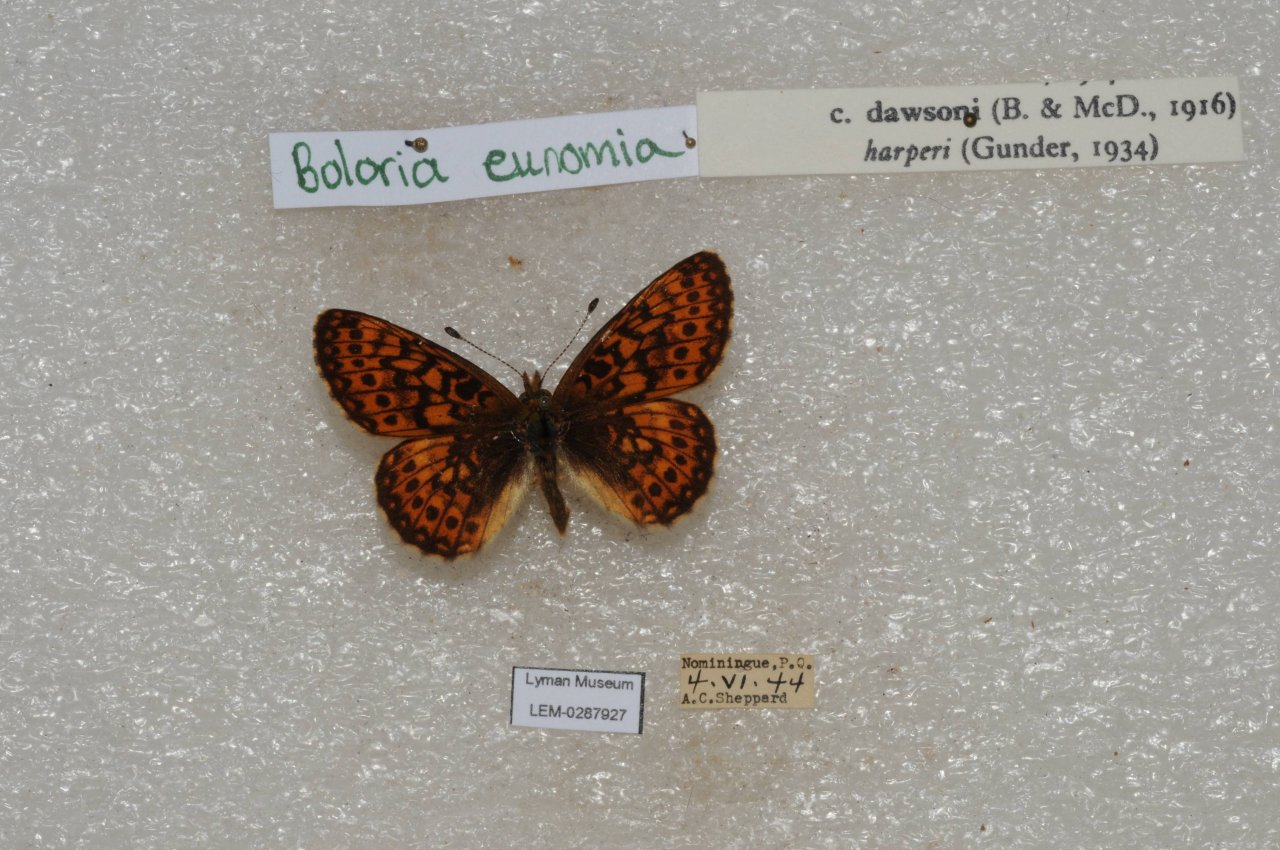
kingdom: Animalia
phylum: Arthropoda
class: Insecta
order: Lepidoptera
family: Nymphalidae
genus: Boloria
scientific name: Boloria eunomia
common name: Bog Fritillary
